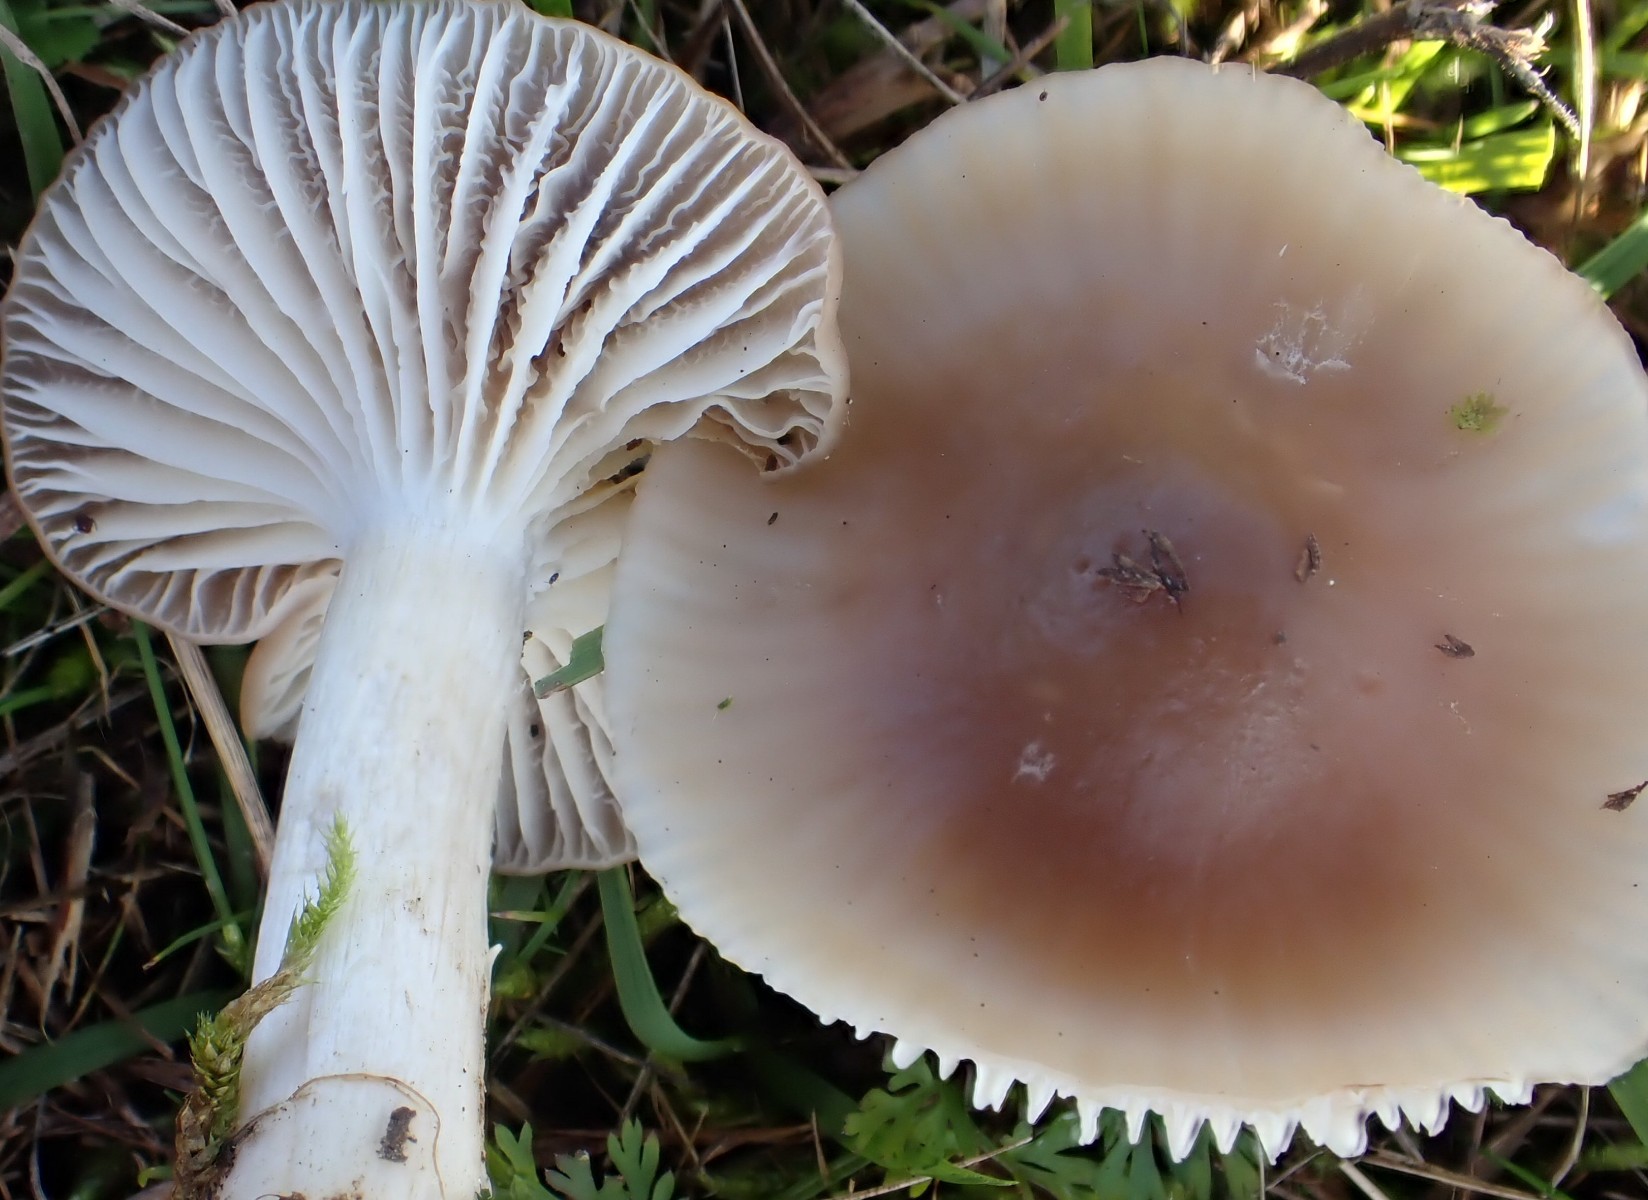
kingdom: Fungi
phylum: Basidiomycota
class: Agaricomycetes
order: Agaricales
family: Hygrophoraceae
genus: Cuphophyllus
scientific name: Cuphophyllus colemannianus
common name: rødbrun vokshat
